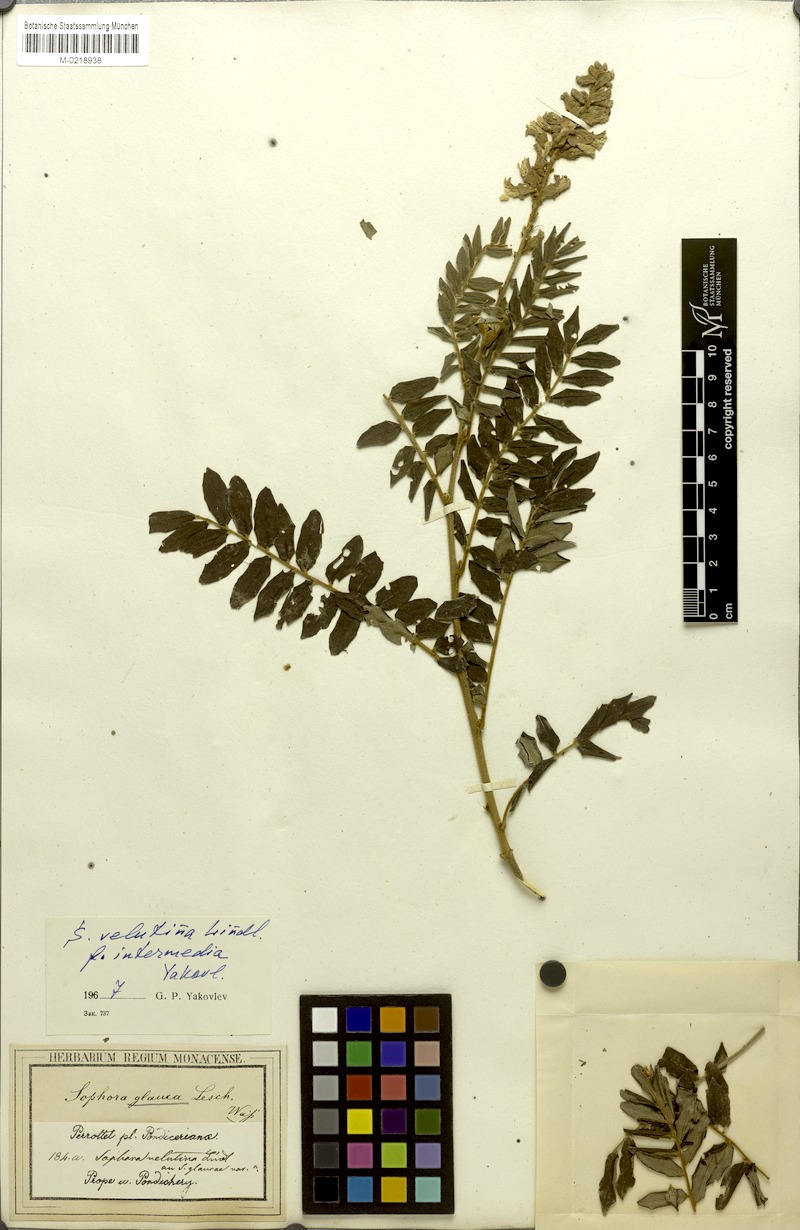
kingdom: Plantae
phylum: Tracheophyta
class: Magnoliopsida
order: Fabales
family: Fabaceae
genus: Sophora
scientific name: Sophora velutina
